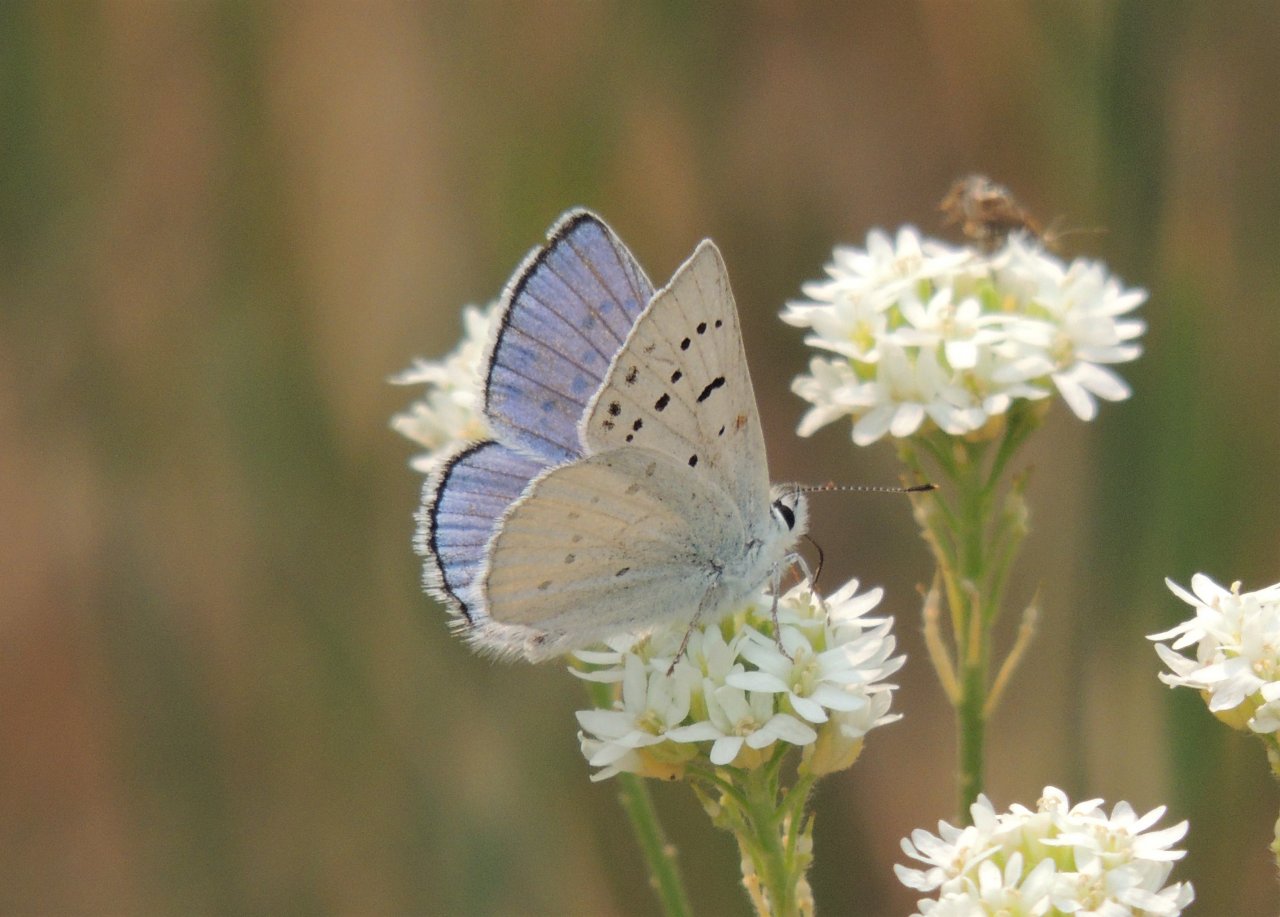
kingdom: Animalia
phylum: Arthropoda
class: Insecta
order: Lepidoptera
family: Lycaenidae
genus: Lycaena
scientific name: Lycaena heteronea
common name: Blue Copper
